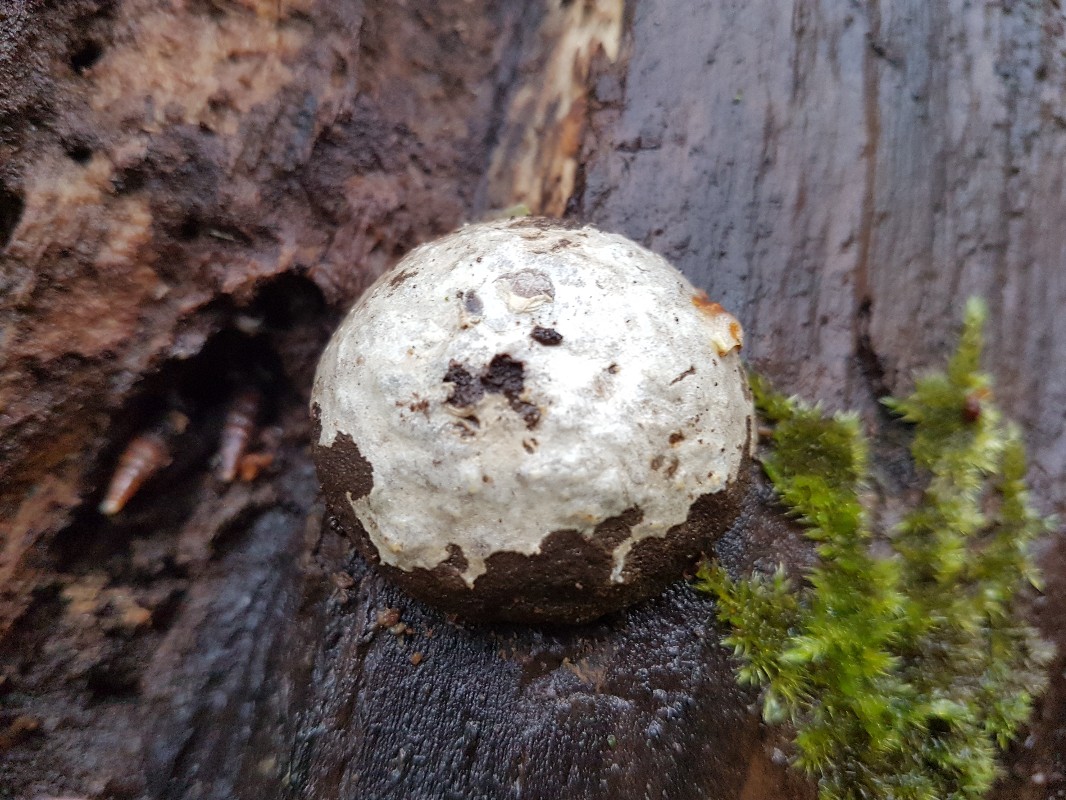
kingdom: Protozoa
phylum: Mycetozoa
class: Myxomycetes
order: Cribrariales
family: Tubiferaceae
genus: Reticularia
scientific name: Reticularia lycoperdon
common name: skinnende støvpude
